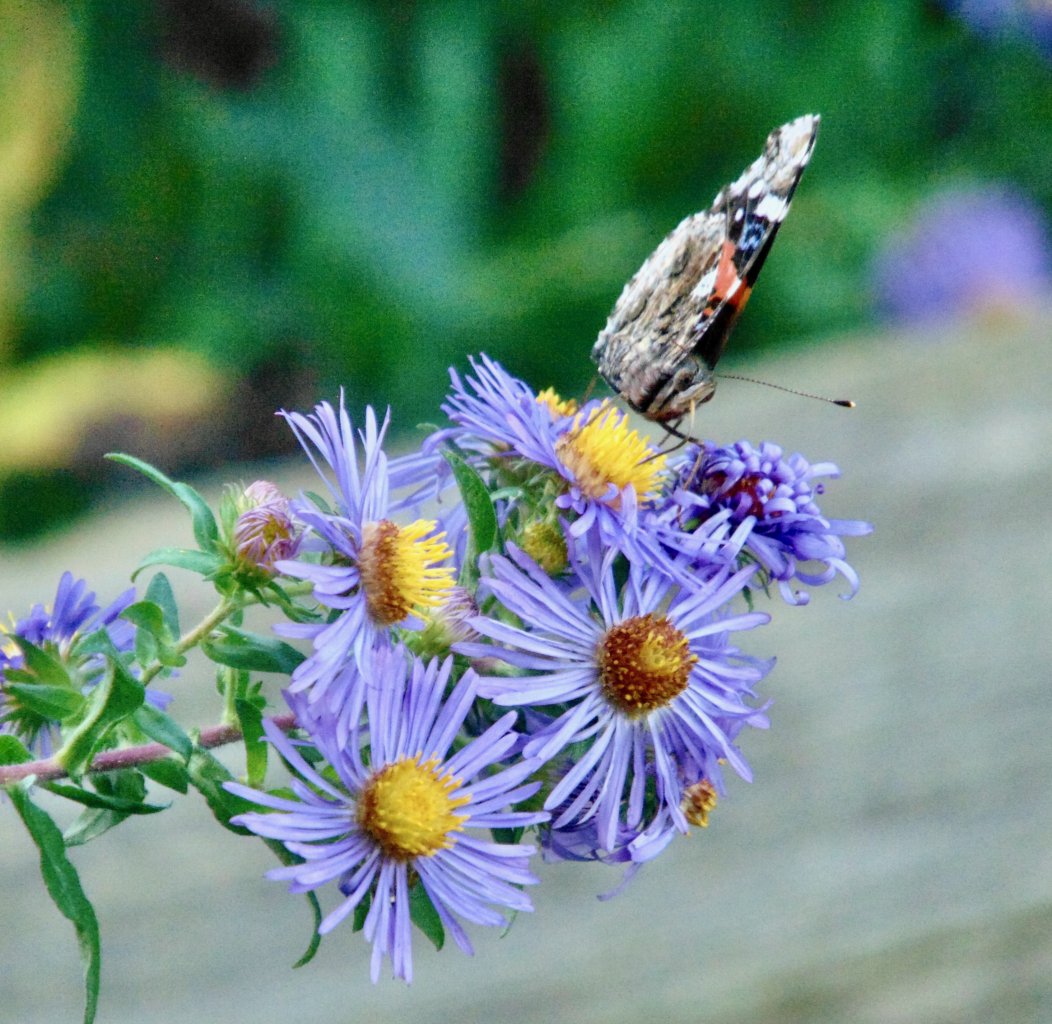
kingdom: Animalia
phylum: Arthropoda
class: Insecta
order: Lepidoptera
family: Nymphalidae
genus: Vanessa
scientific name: Vanessa atalanta
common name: Red Admiral
